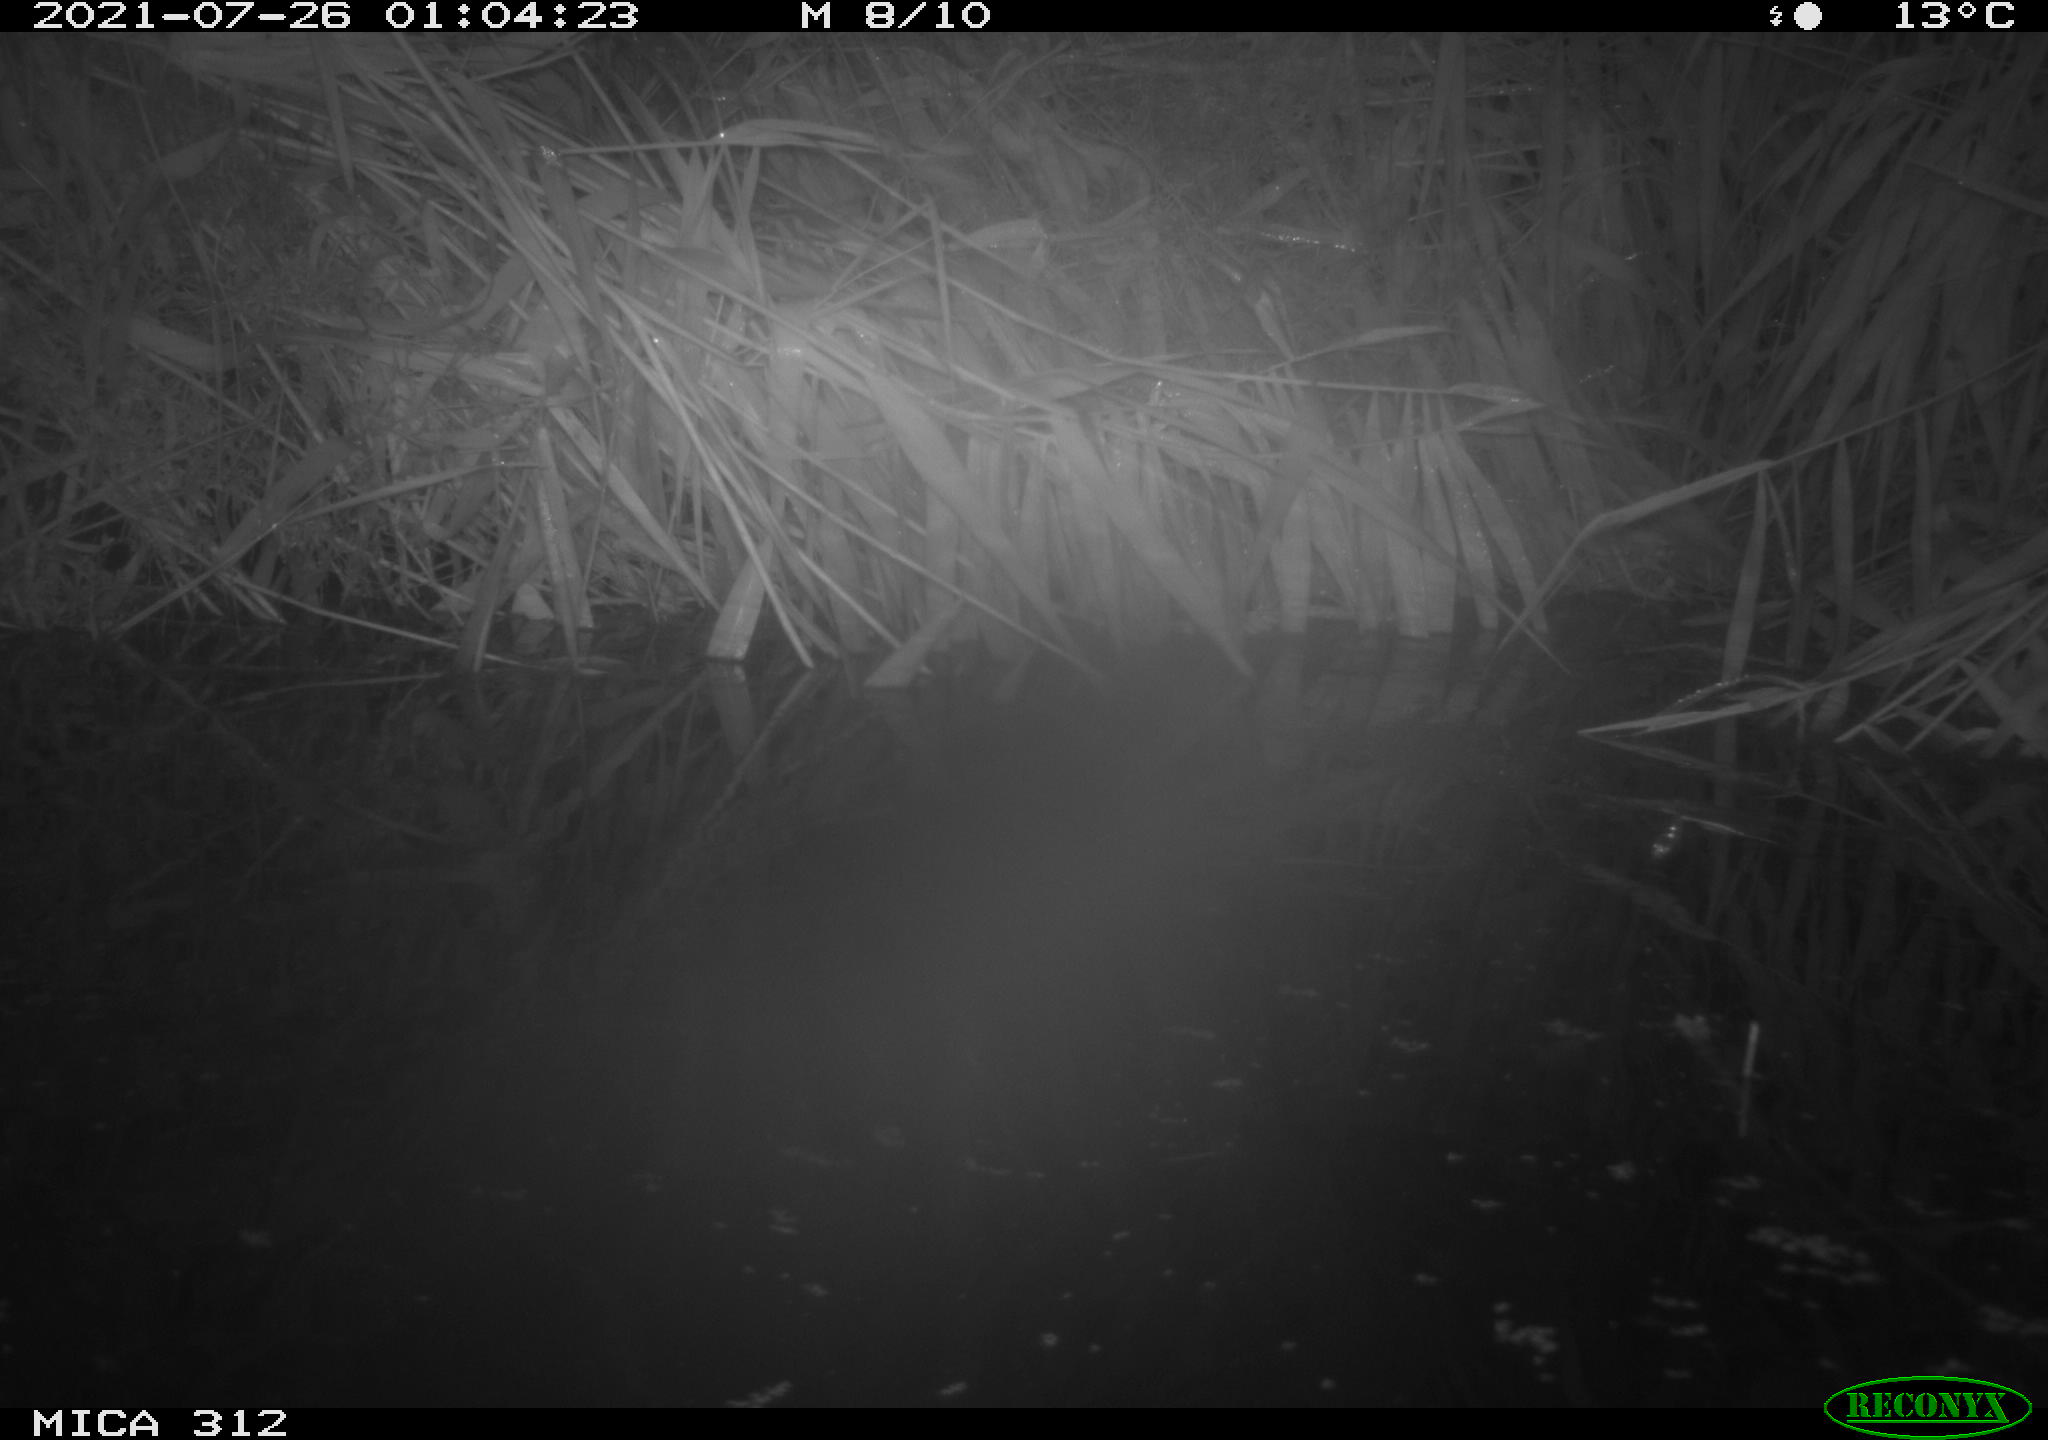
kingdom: Animalia
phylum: Chordata
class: Mammalia
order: Rodentia
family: Muridae
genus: Rattus
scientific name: Rattus norvegicus
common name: Brown rat
